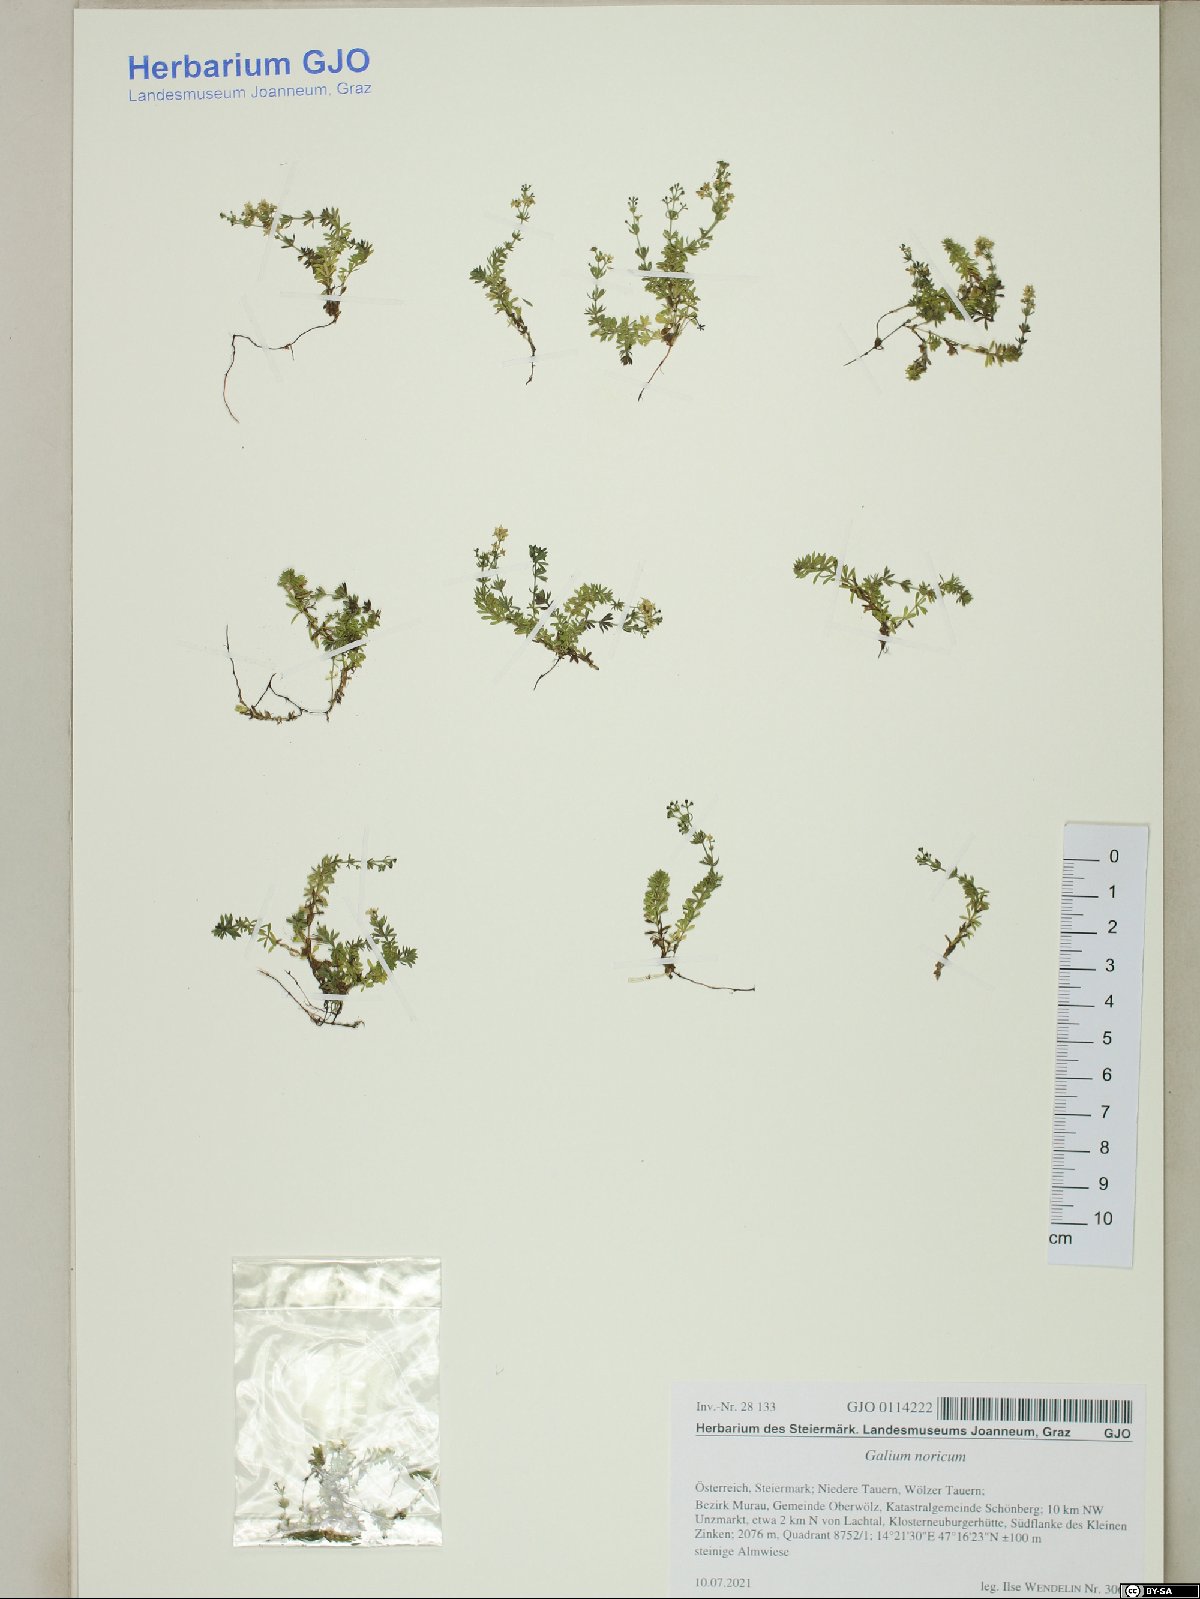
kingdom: Plantae
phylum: Tracheophyta
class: Magnoliopsida
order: Gentianales
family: Rubiaceae
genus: Galium
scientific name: Galium noricum
